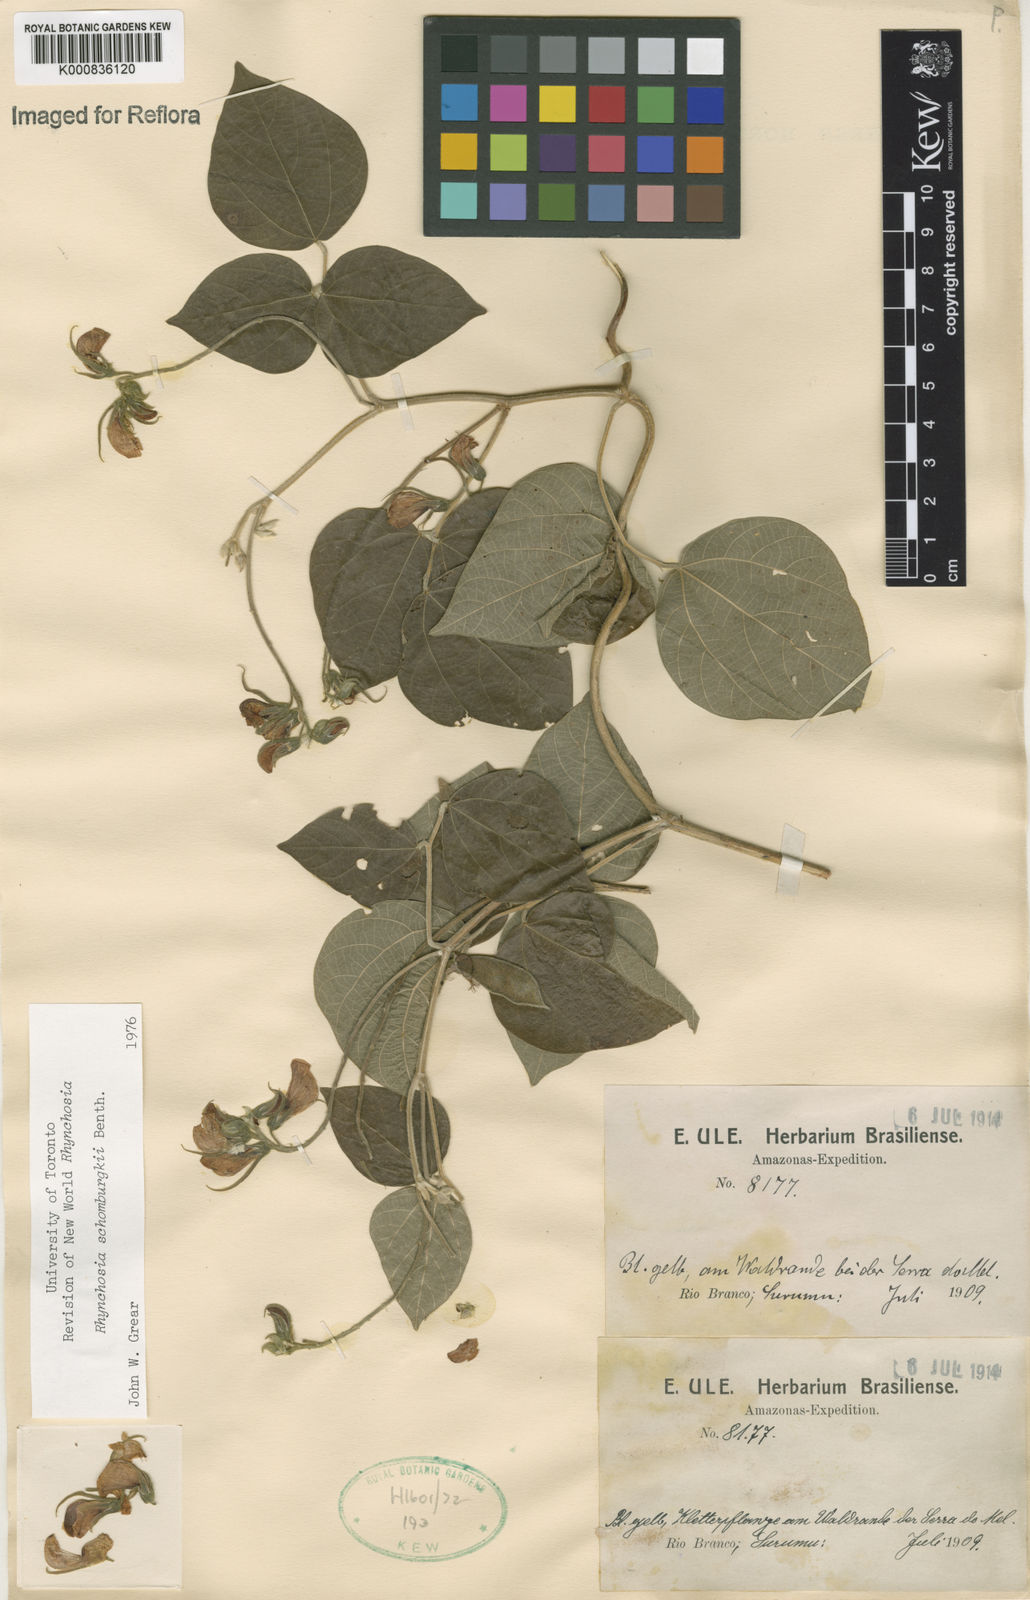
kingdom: Plantae
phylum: Tracheophyta
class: Magnoliopsida
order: Fabales
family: Fabaceae
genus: Rhynchosia
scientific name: Rhynchosia schomburgkii
